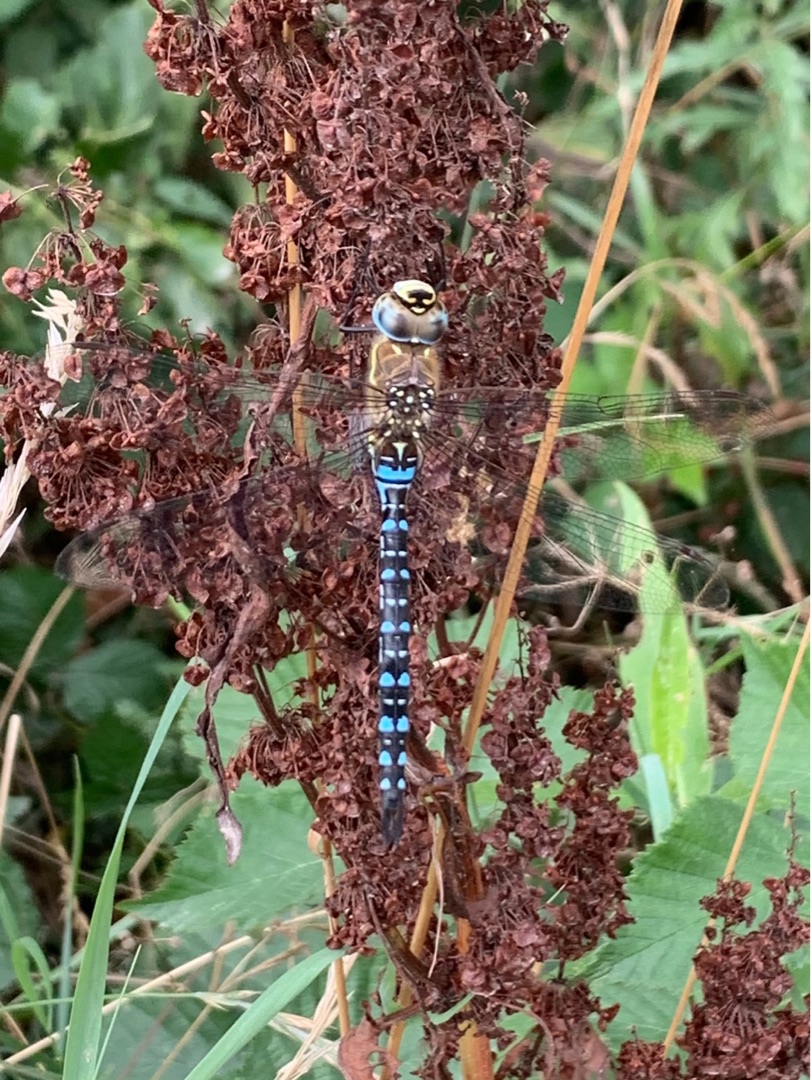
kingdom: Animalia
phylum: Arthropoda
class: Insecta
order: Odonata
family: Aeshnidae
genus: Aeshna
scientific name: Aeshna mixta
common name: Efterårs-mosaikguldsmed
